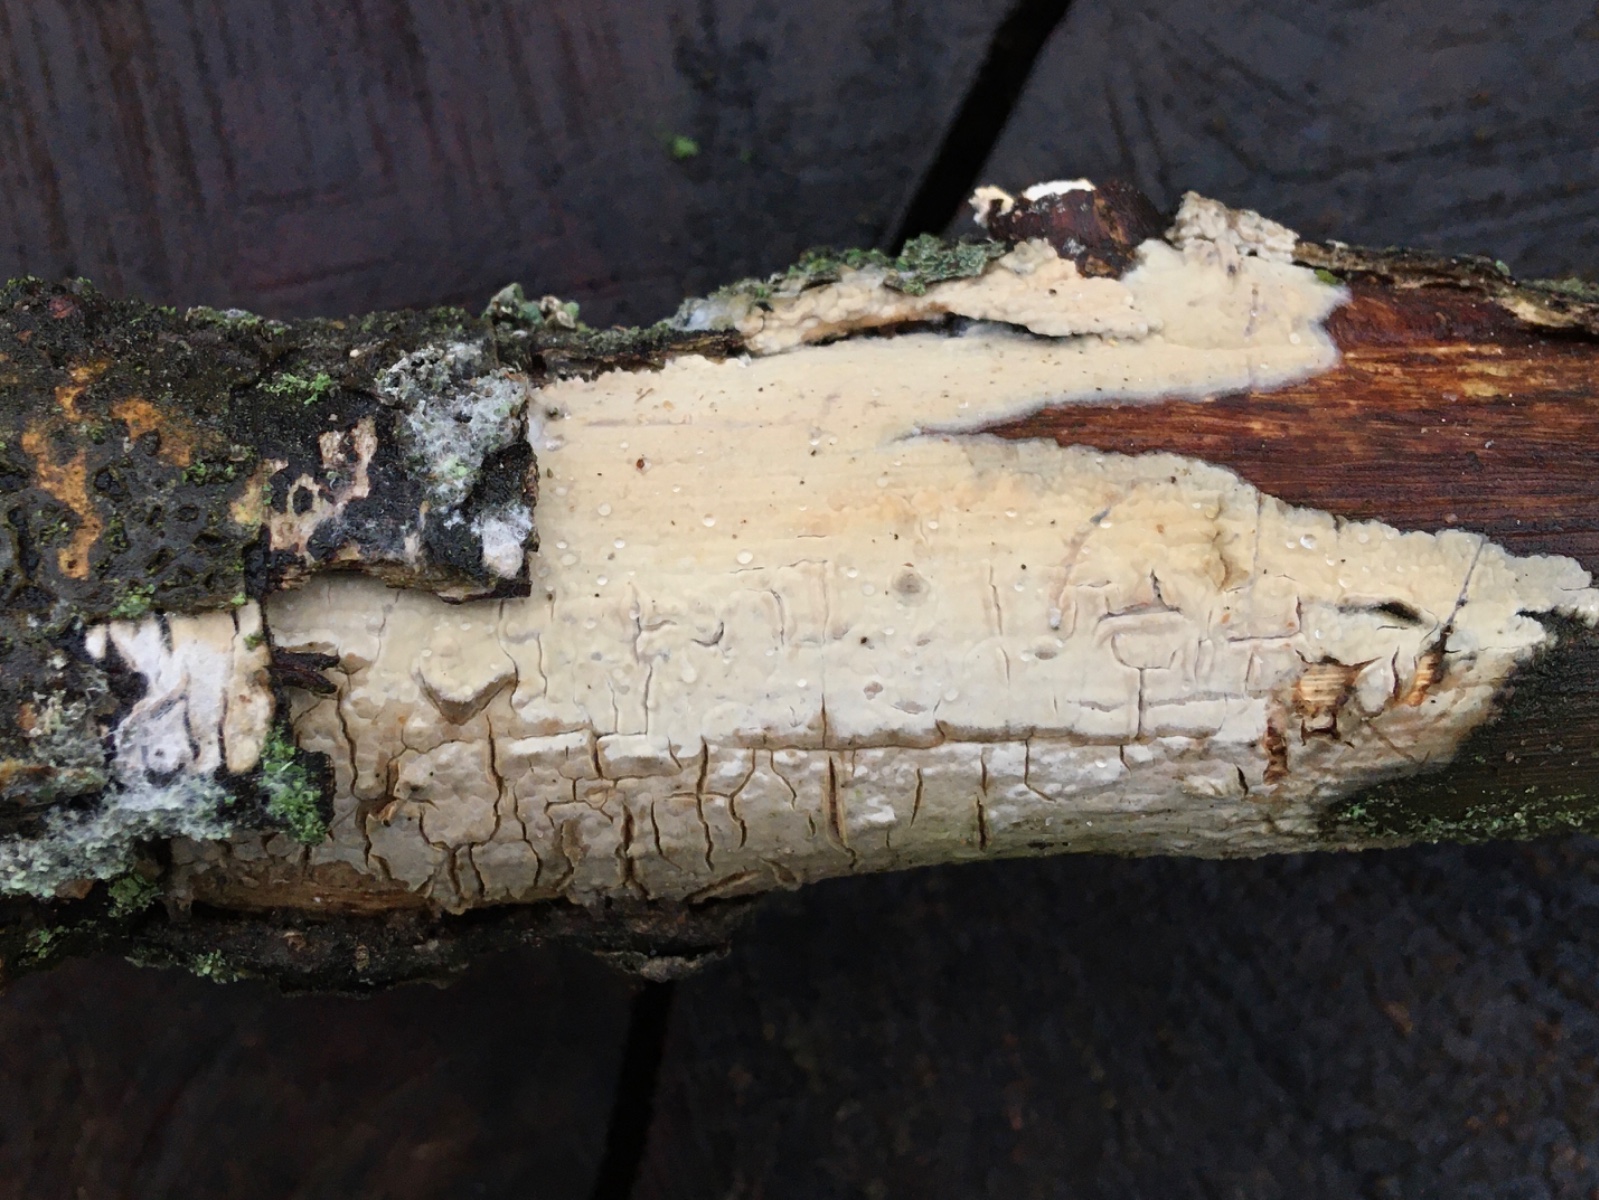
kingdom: Fungi
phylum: Basidiomycota
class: Agaricomycetes
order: Agaricales
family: Radulomycetaceae
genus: Radulomyces
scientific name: Radulomyces confluens
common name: glat naftalinskind
